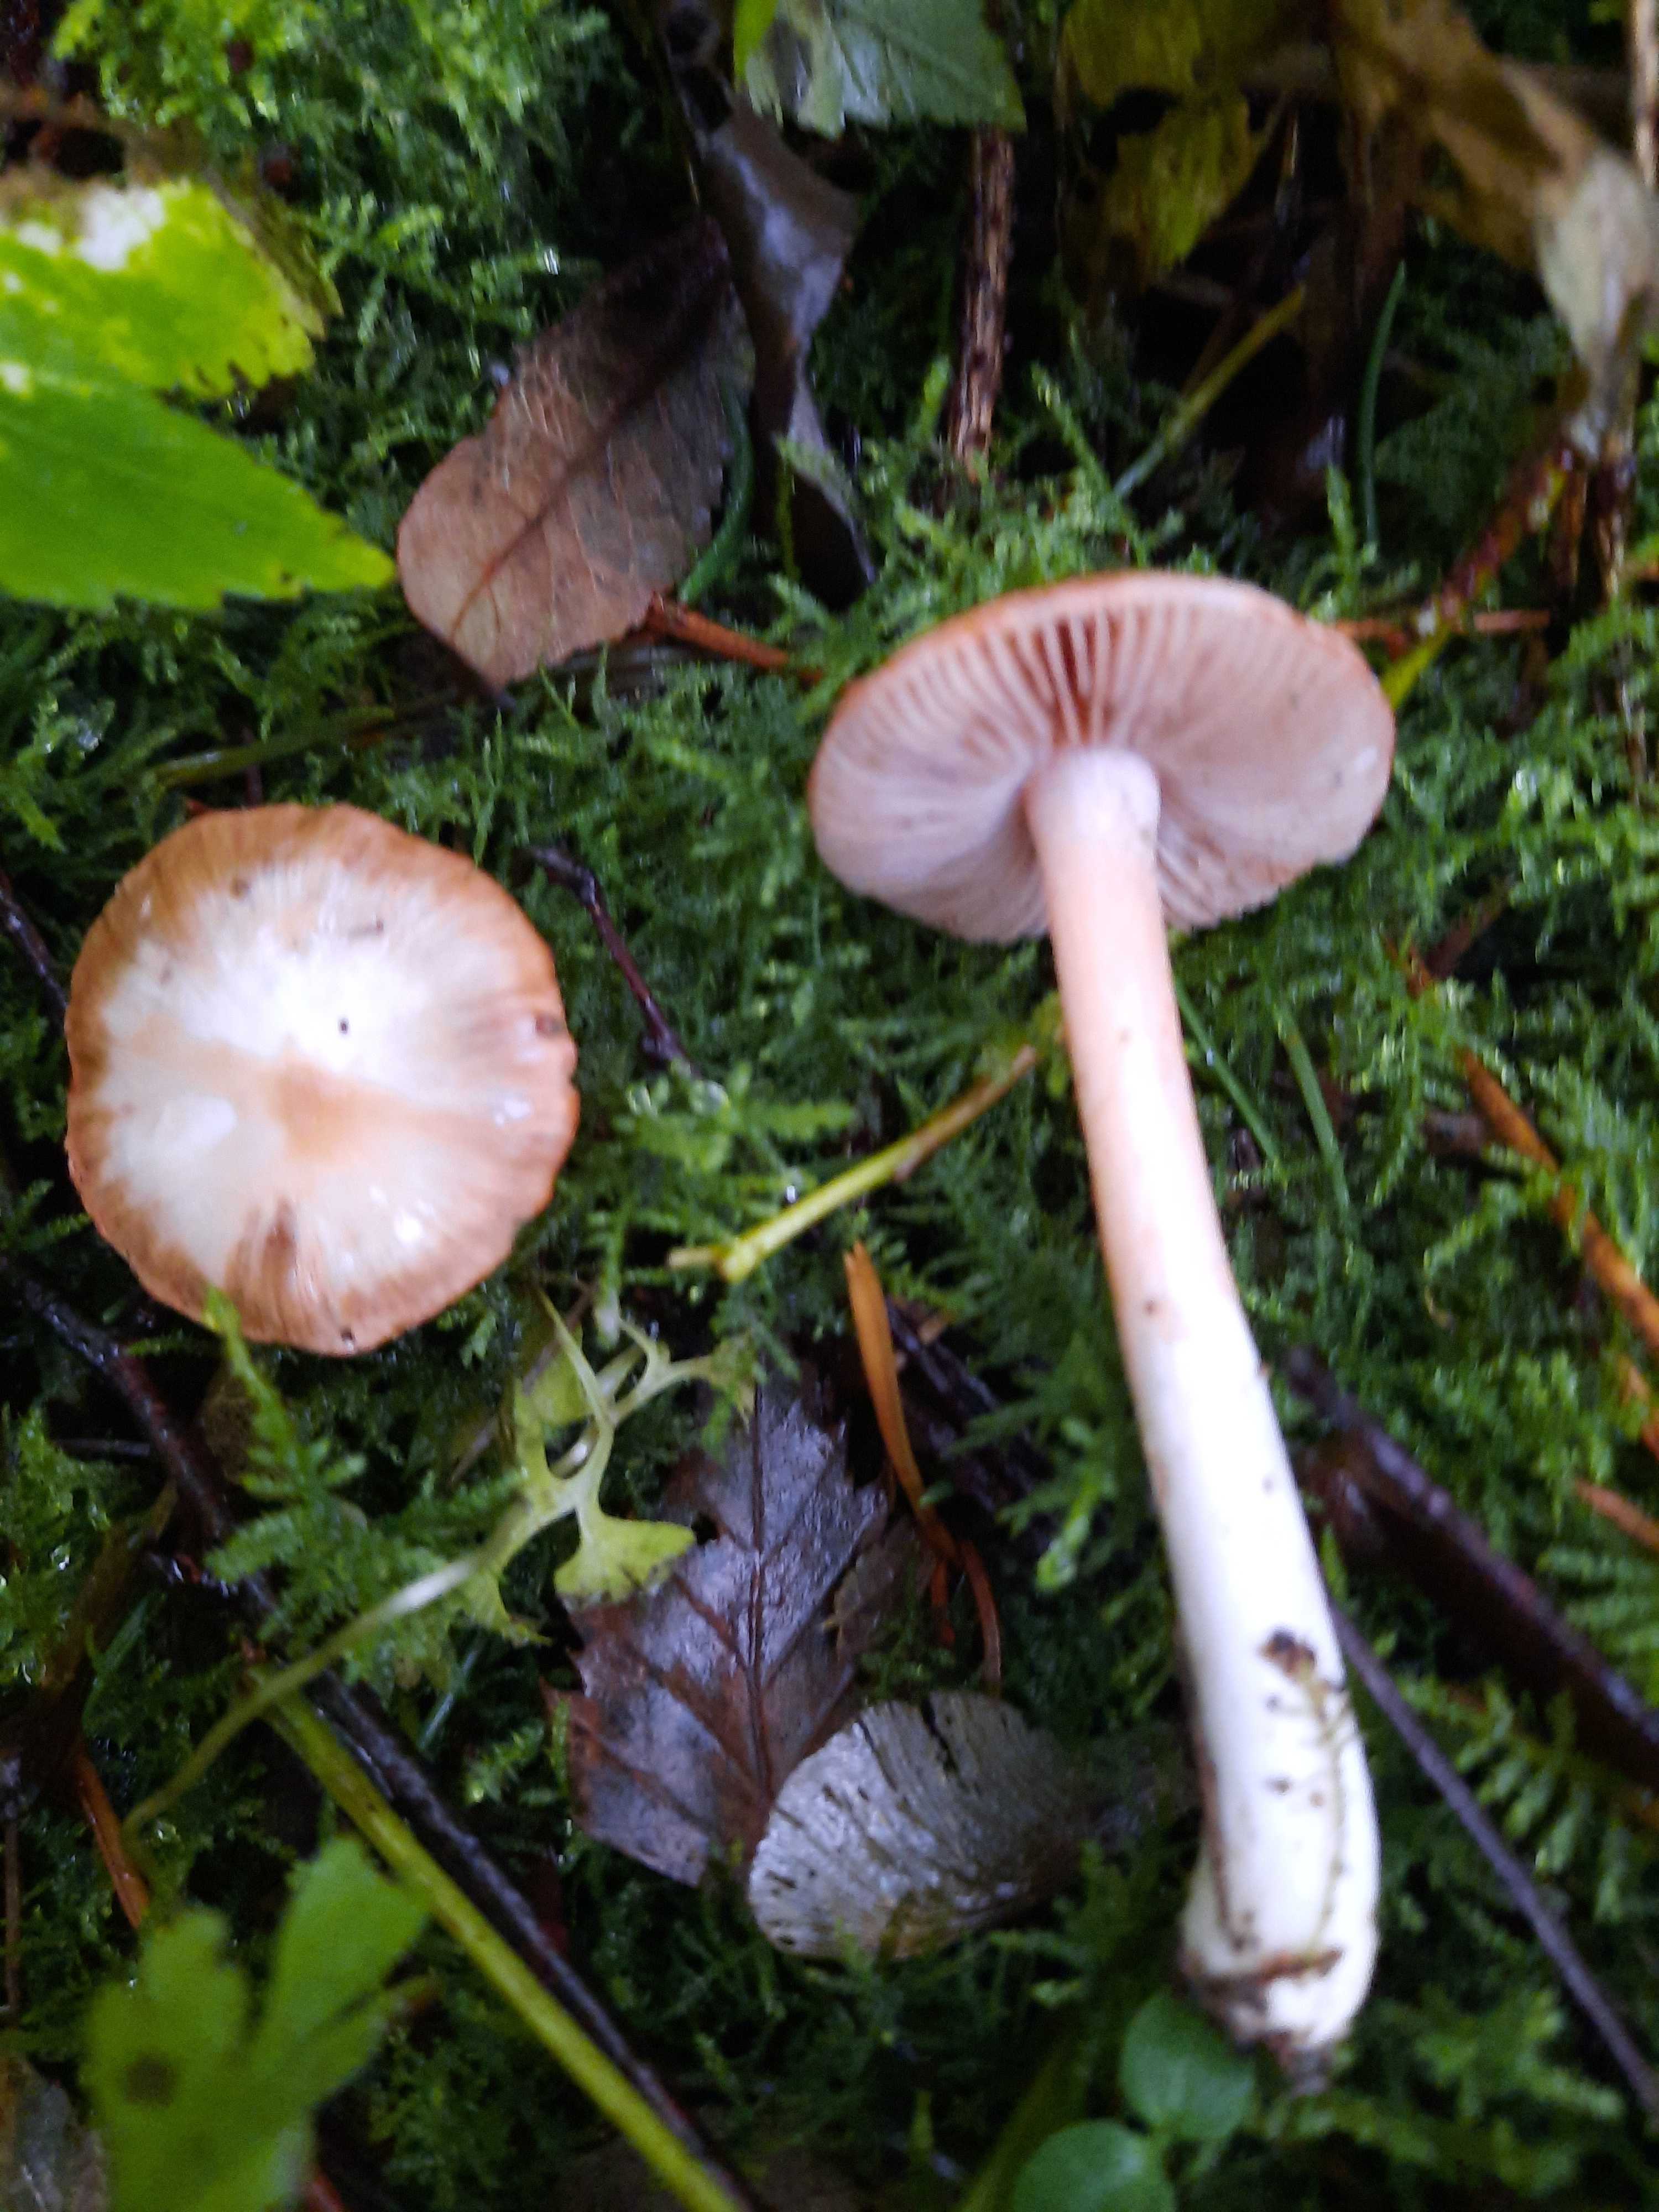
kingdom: Fungi
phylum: Basidiomycota
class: Agaricomycetes
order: Agaricales
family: Inocybaceae
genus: Inocybe
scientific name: Inocybe
